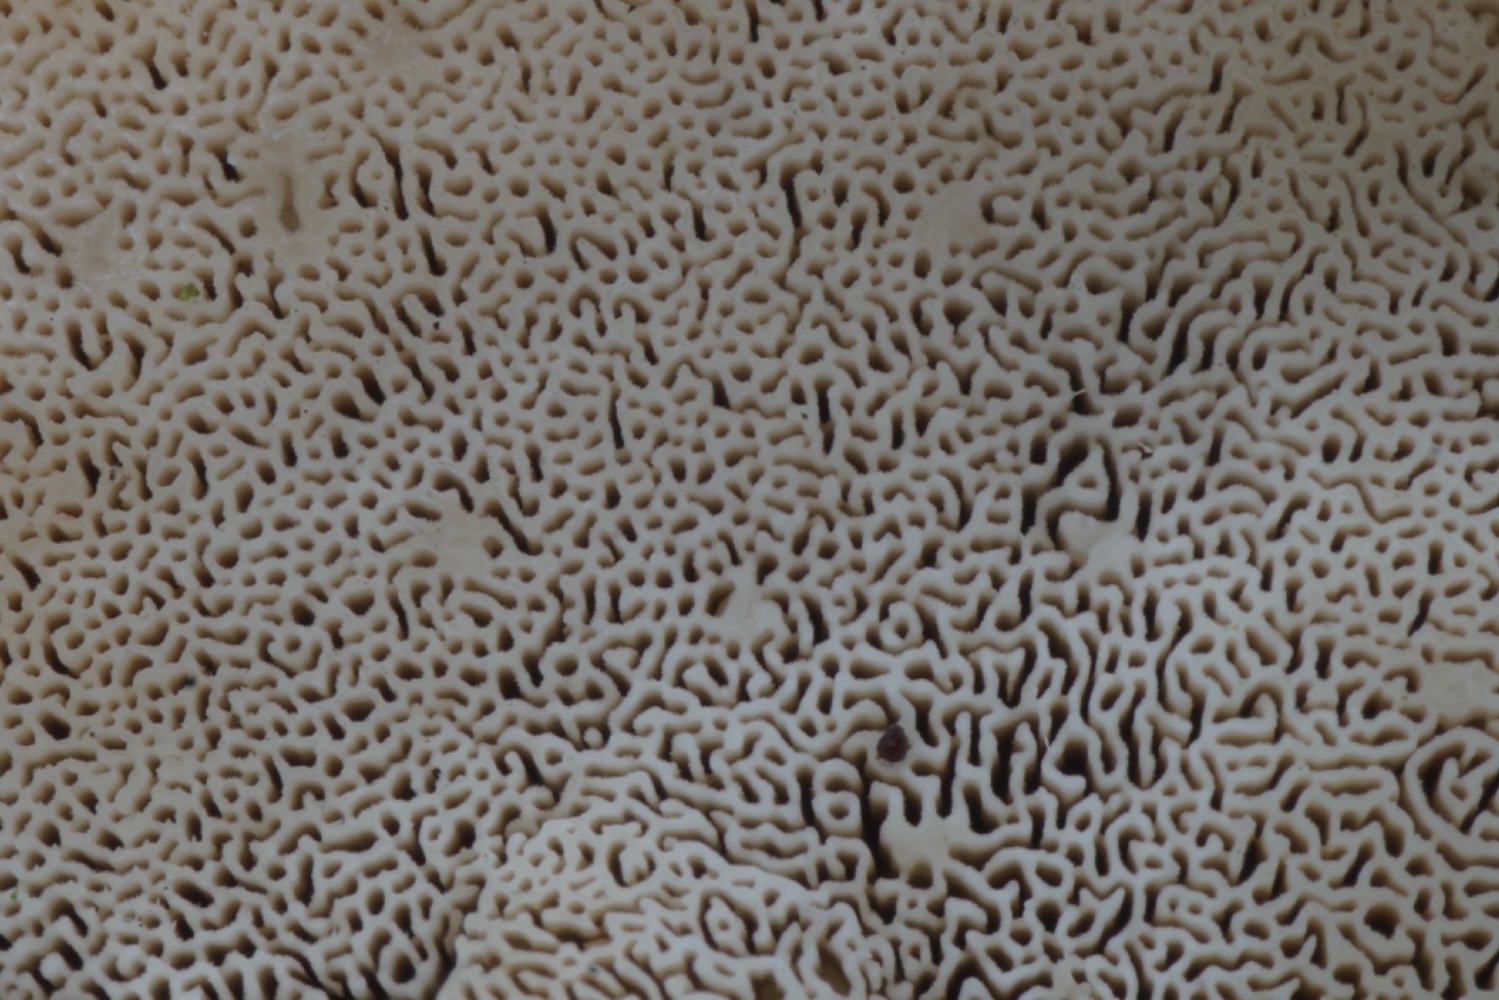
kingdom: Fungi
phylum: Basidiomycota
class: Agaricomycetes
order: Polyporales
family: Dacryobolaceae
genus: Postia
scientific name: Postia ptychogaster
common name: støvende kødporesvamp
